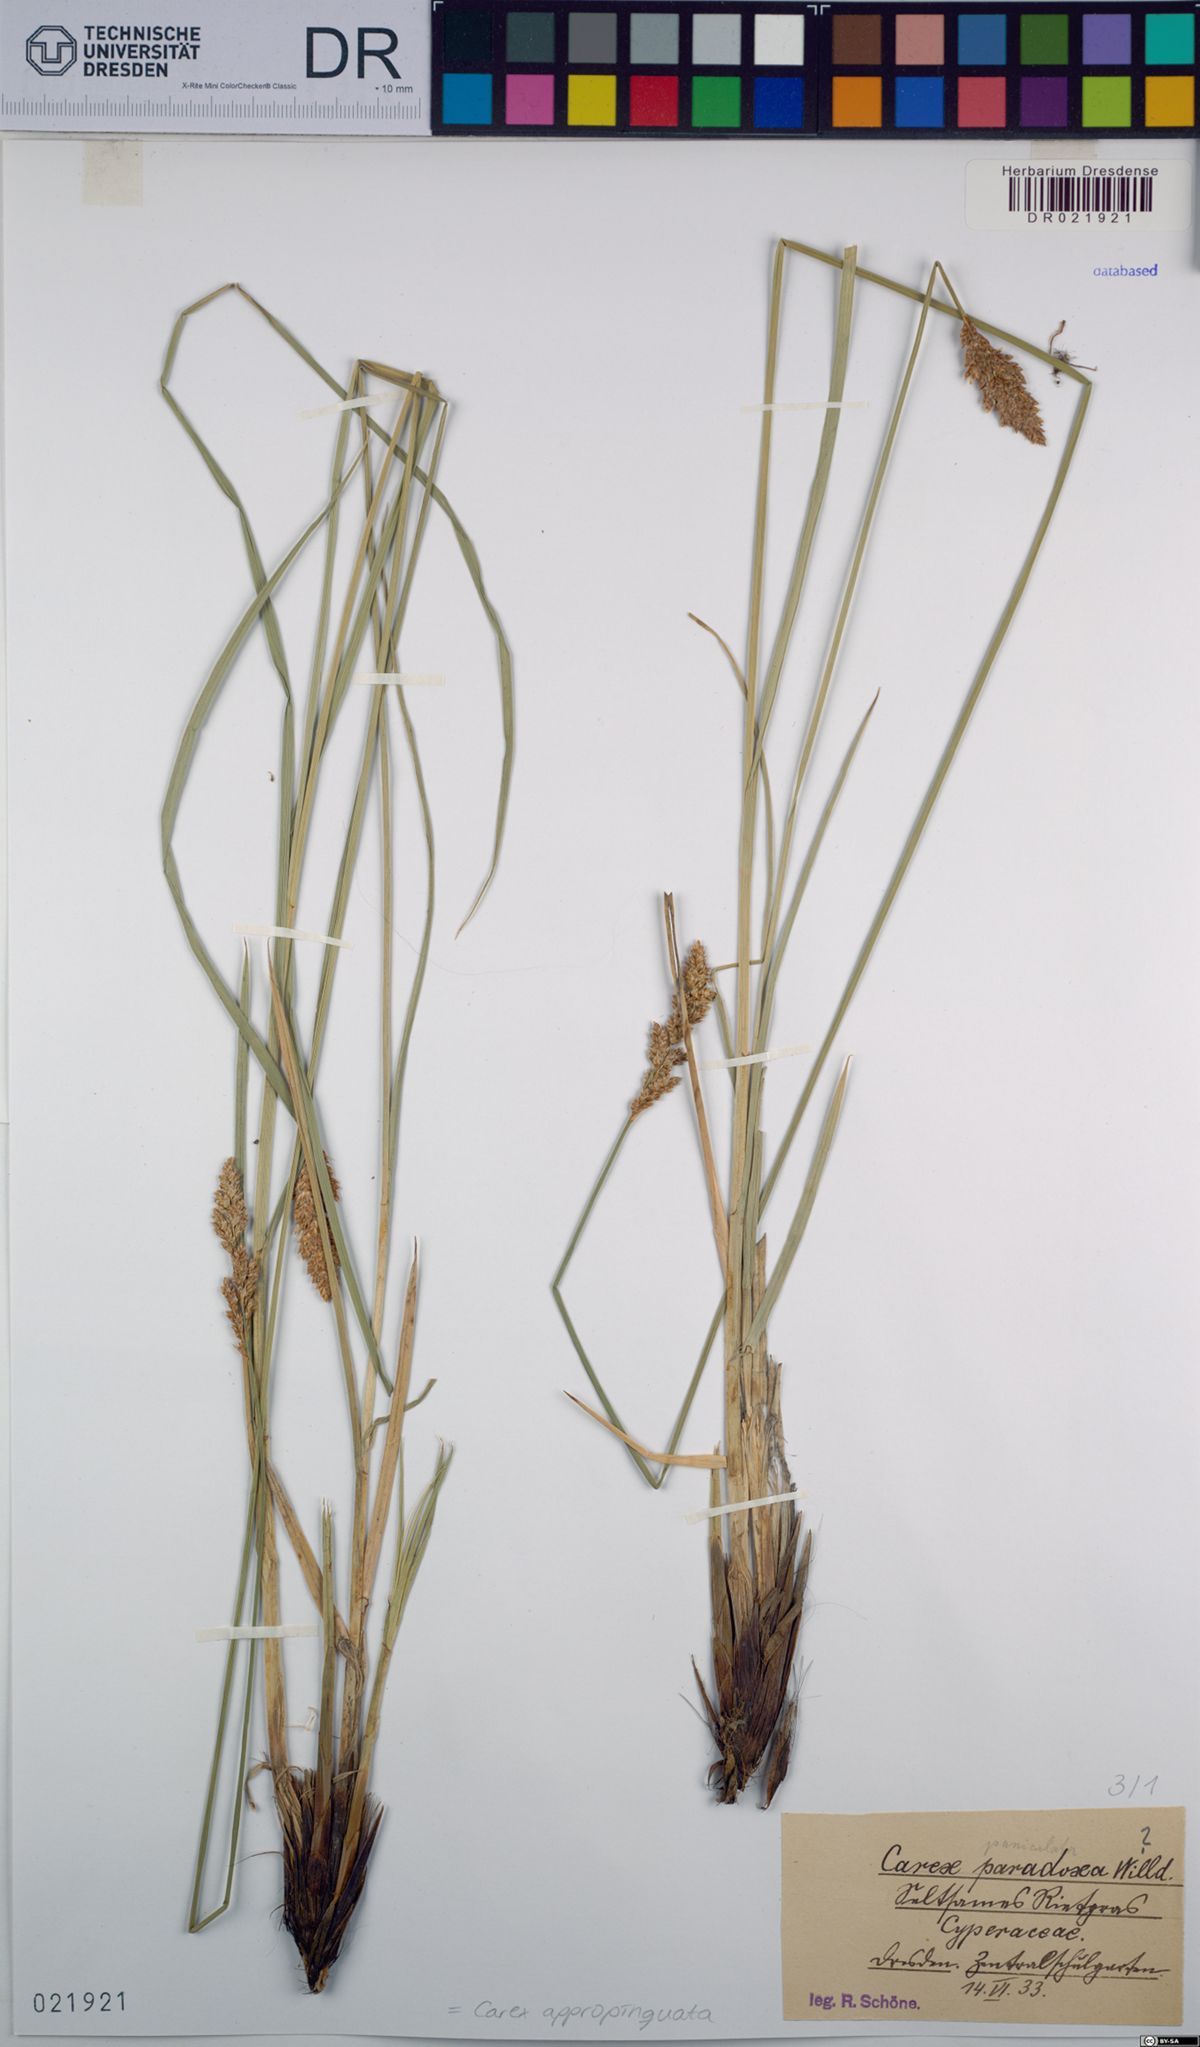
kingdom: Plantae
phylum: Tracheophyta
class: Liliopsida
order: Poales
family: Cyperaceae
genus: Carex
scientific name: Carex appropinquata
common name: Fibrous tussock-sedge
